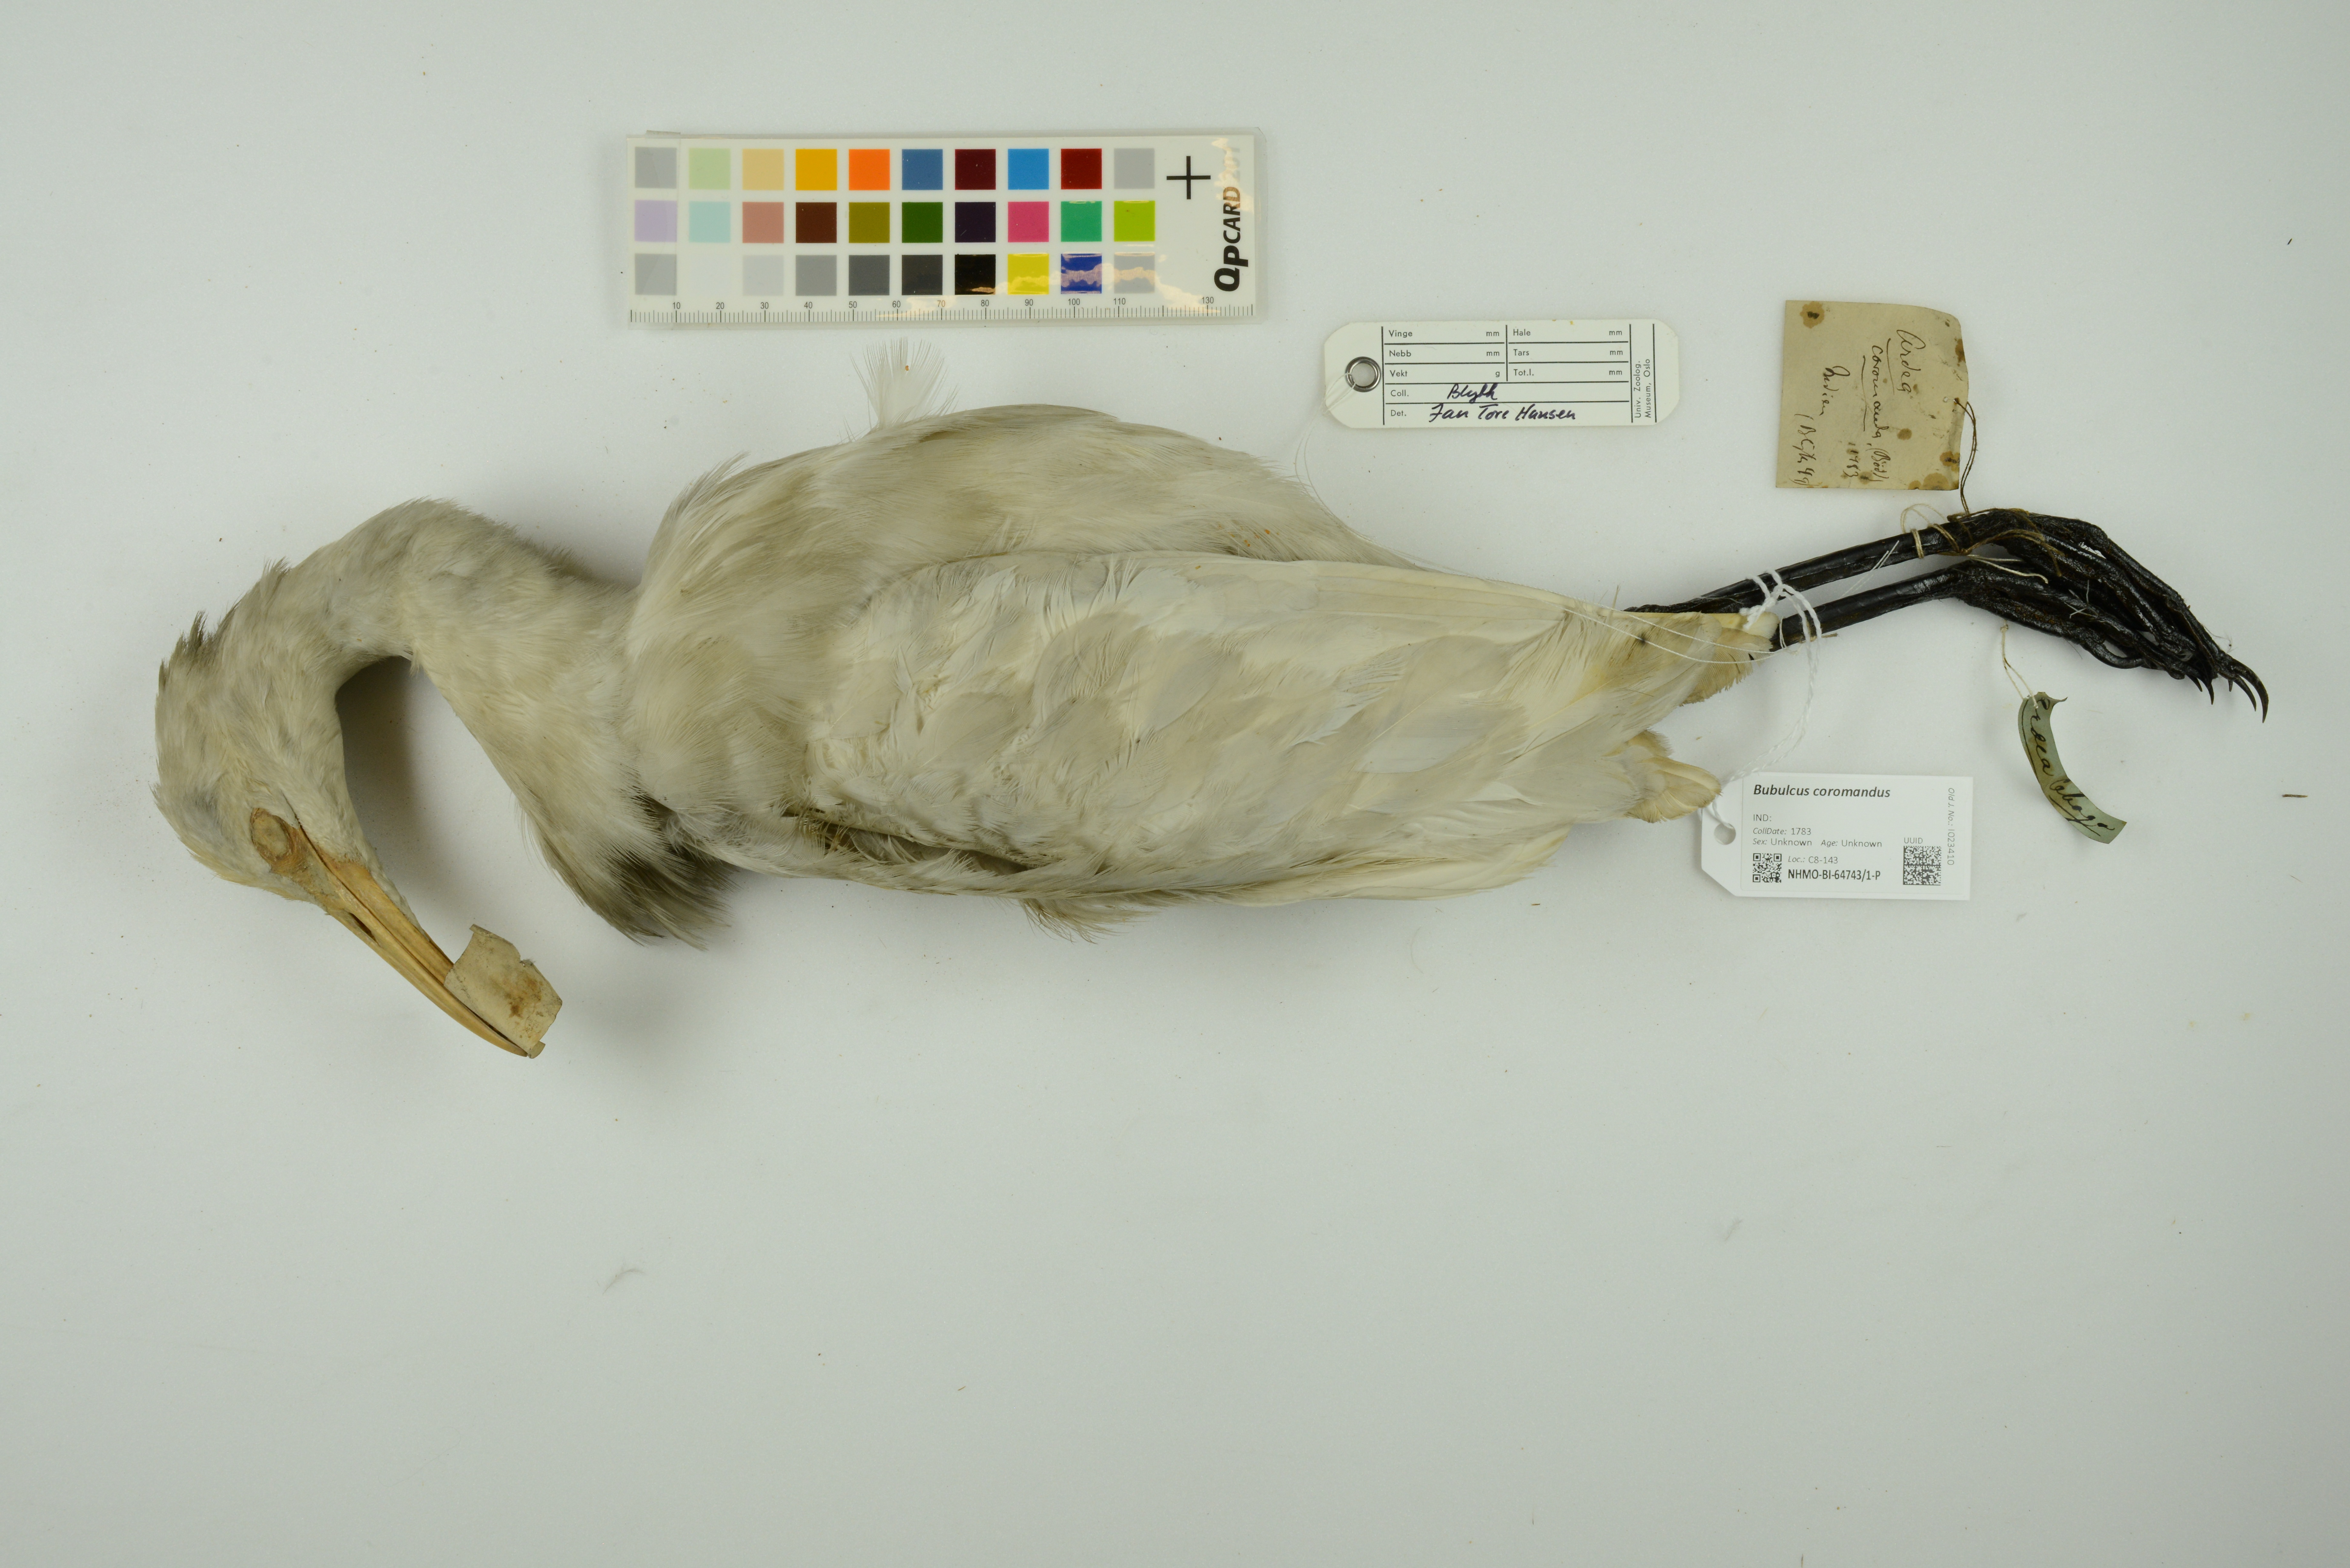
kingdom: Animalia
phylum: Chordata
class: Aves
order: Pelecaniformes
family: Ardeidae
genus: Bubulcus
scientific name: Bubulcus coromandus
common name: Eastern cattle egret
